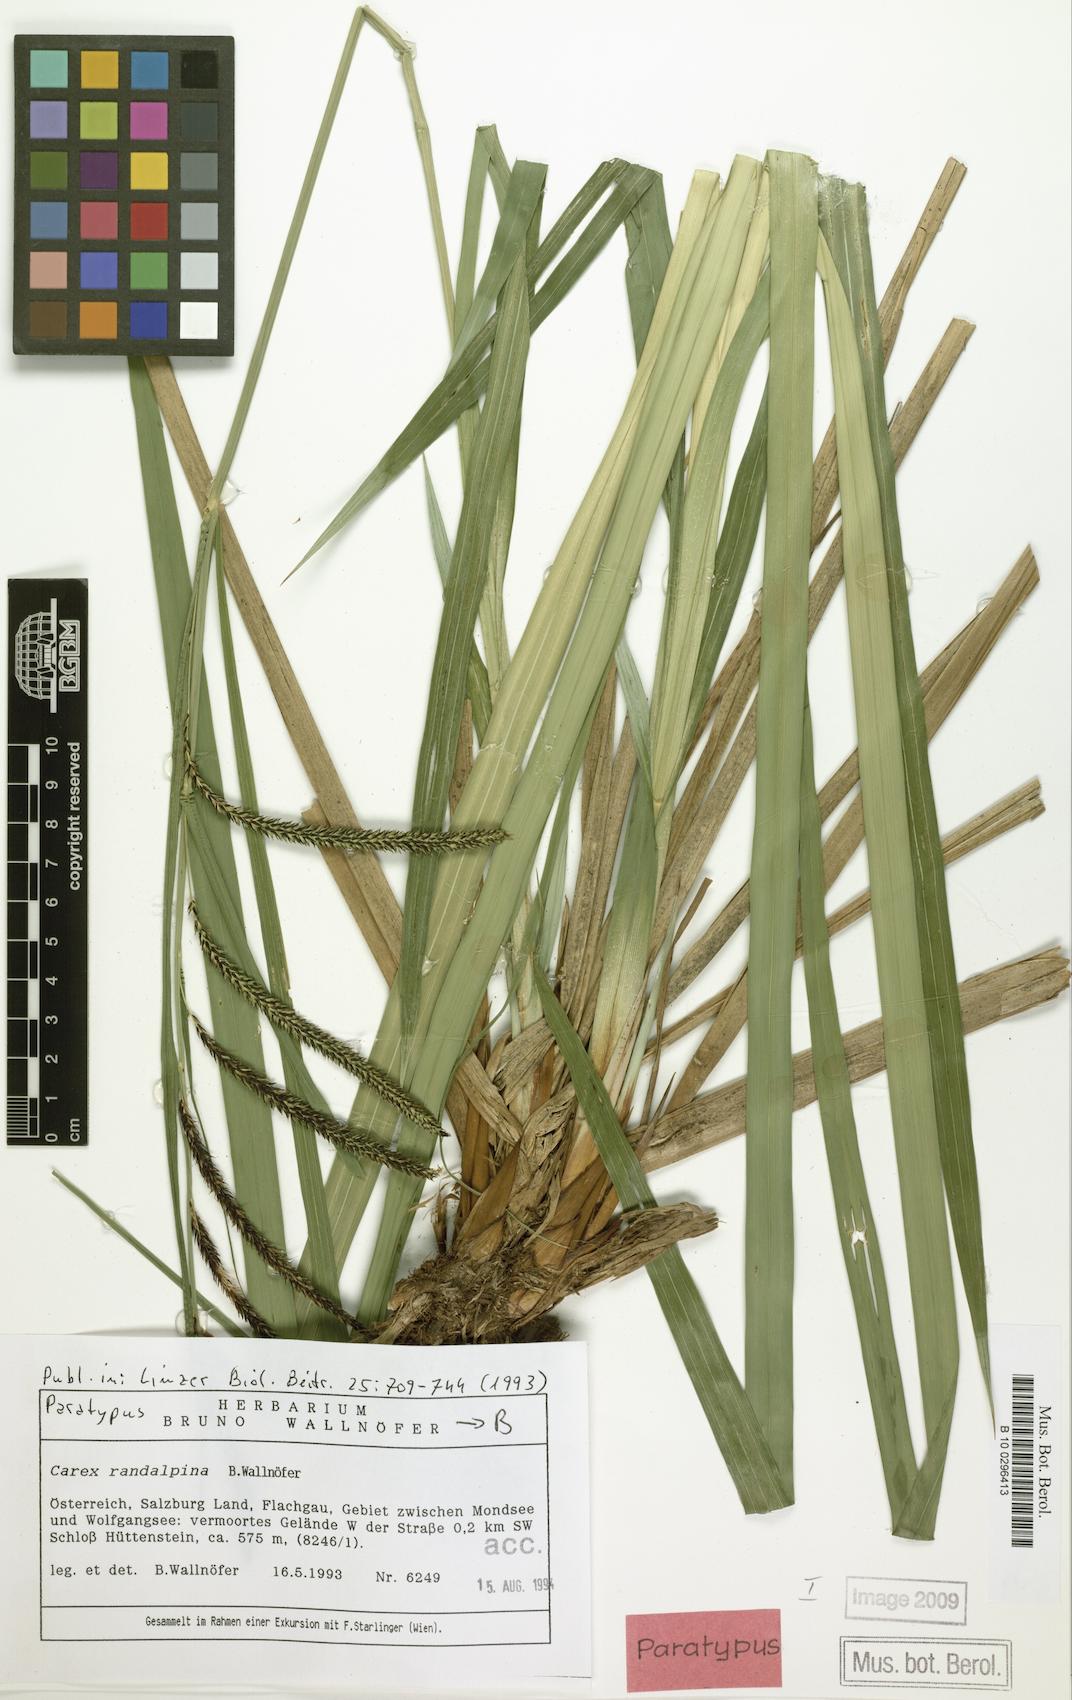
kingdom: Plantae
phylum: Tracheophyta
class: Liliopsida
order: Poales
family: Cyperaceae
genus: Carex
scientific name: Carex randalpina
